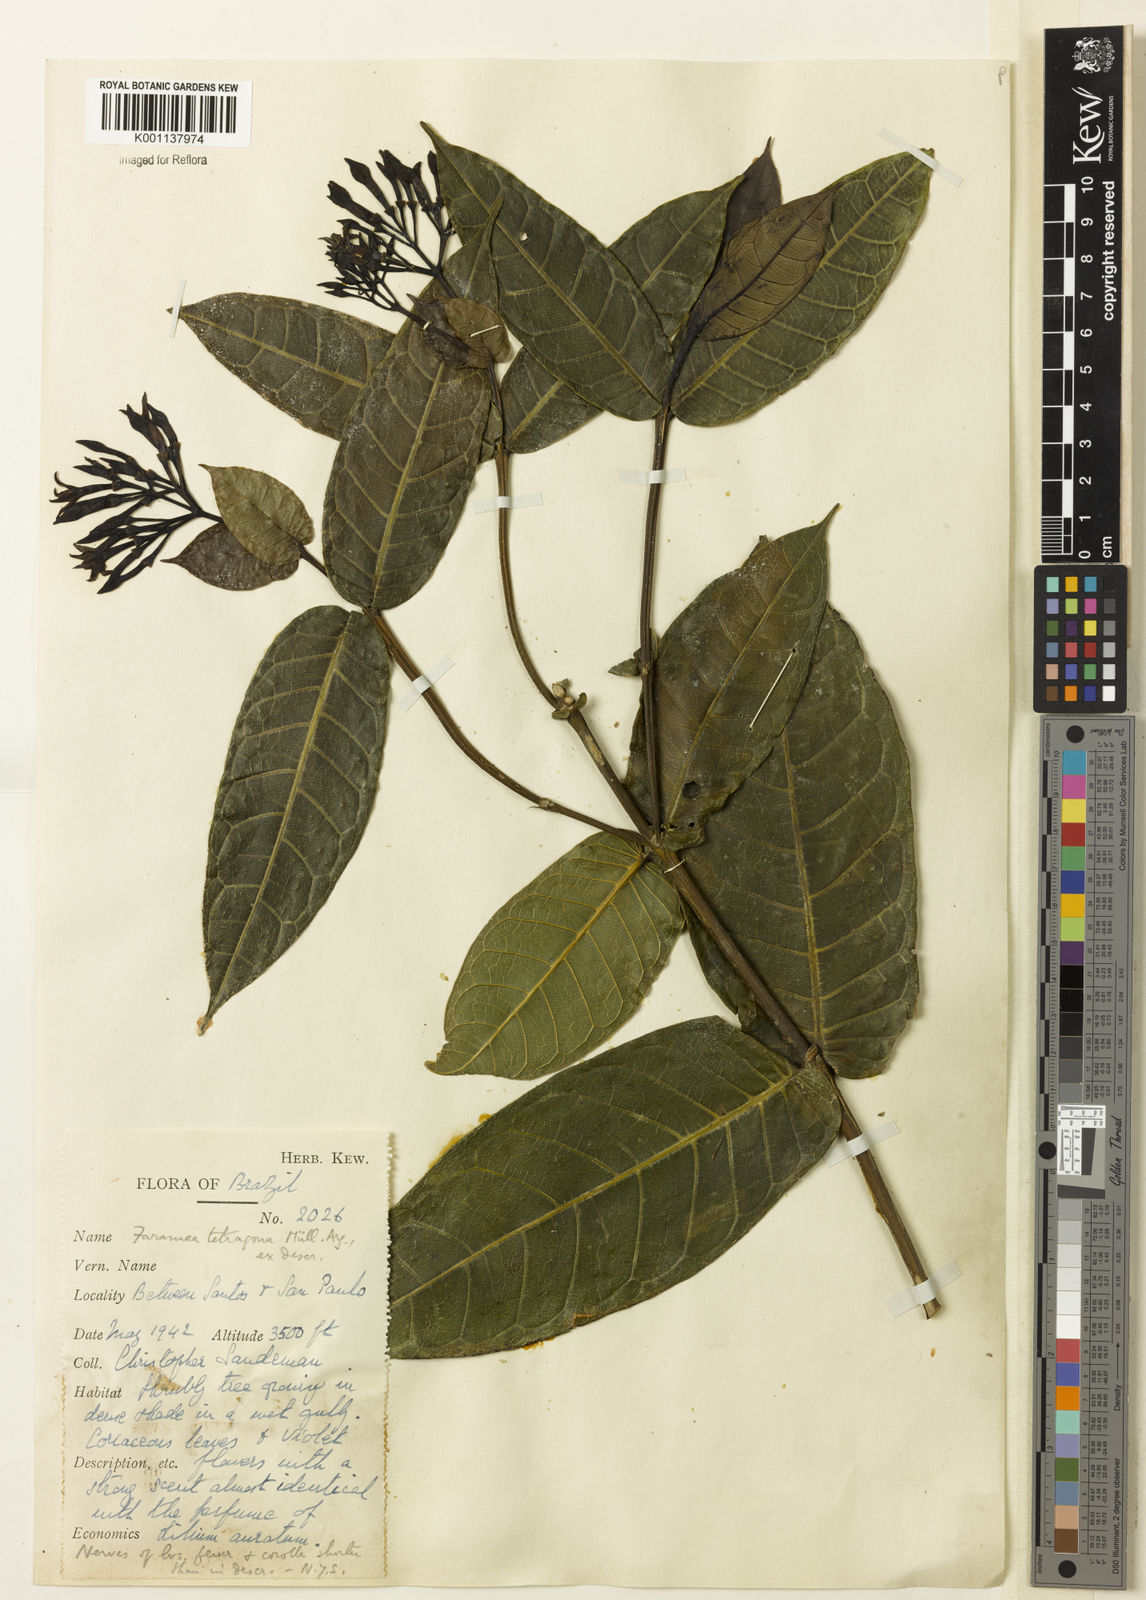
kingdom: Plantae
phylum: Tracheophyta
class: Magnoliopsida
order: Gentianales
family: Rubiaceae
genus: Faramea
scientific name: Faramea
